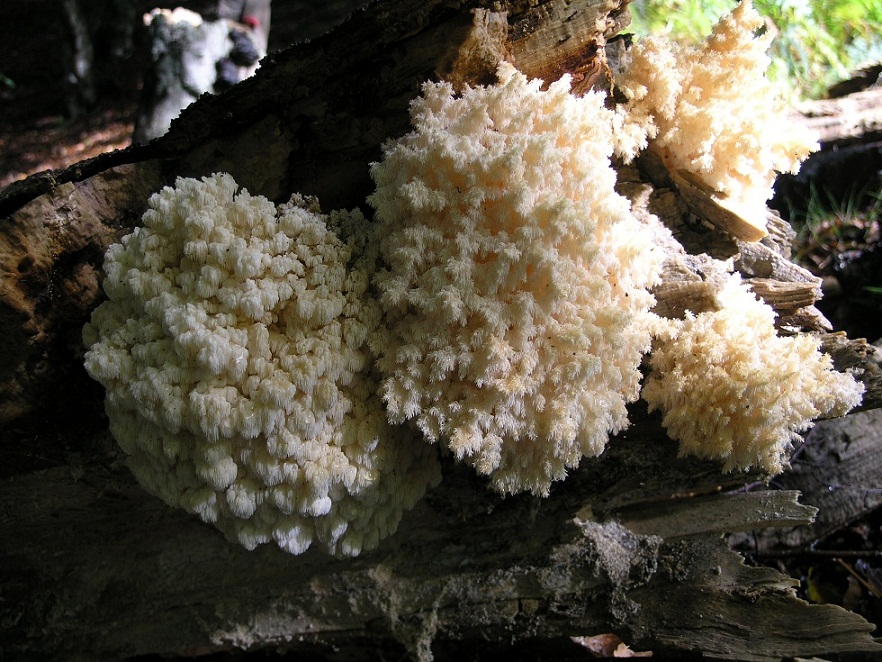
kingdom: Fungi
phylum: Basidiomycota
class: Agaricomycetes
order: Russulales
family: Hericiaceae
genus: Hericium
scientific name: Hericium coralloides
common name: koralpigsvamp
